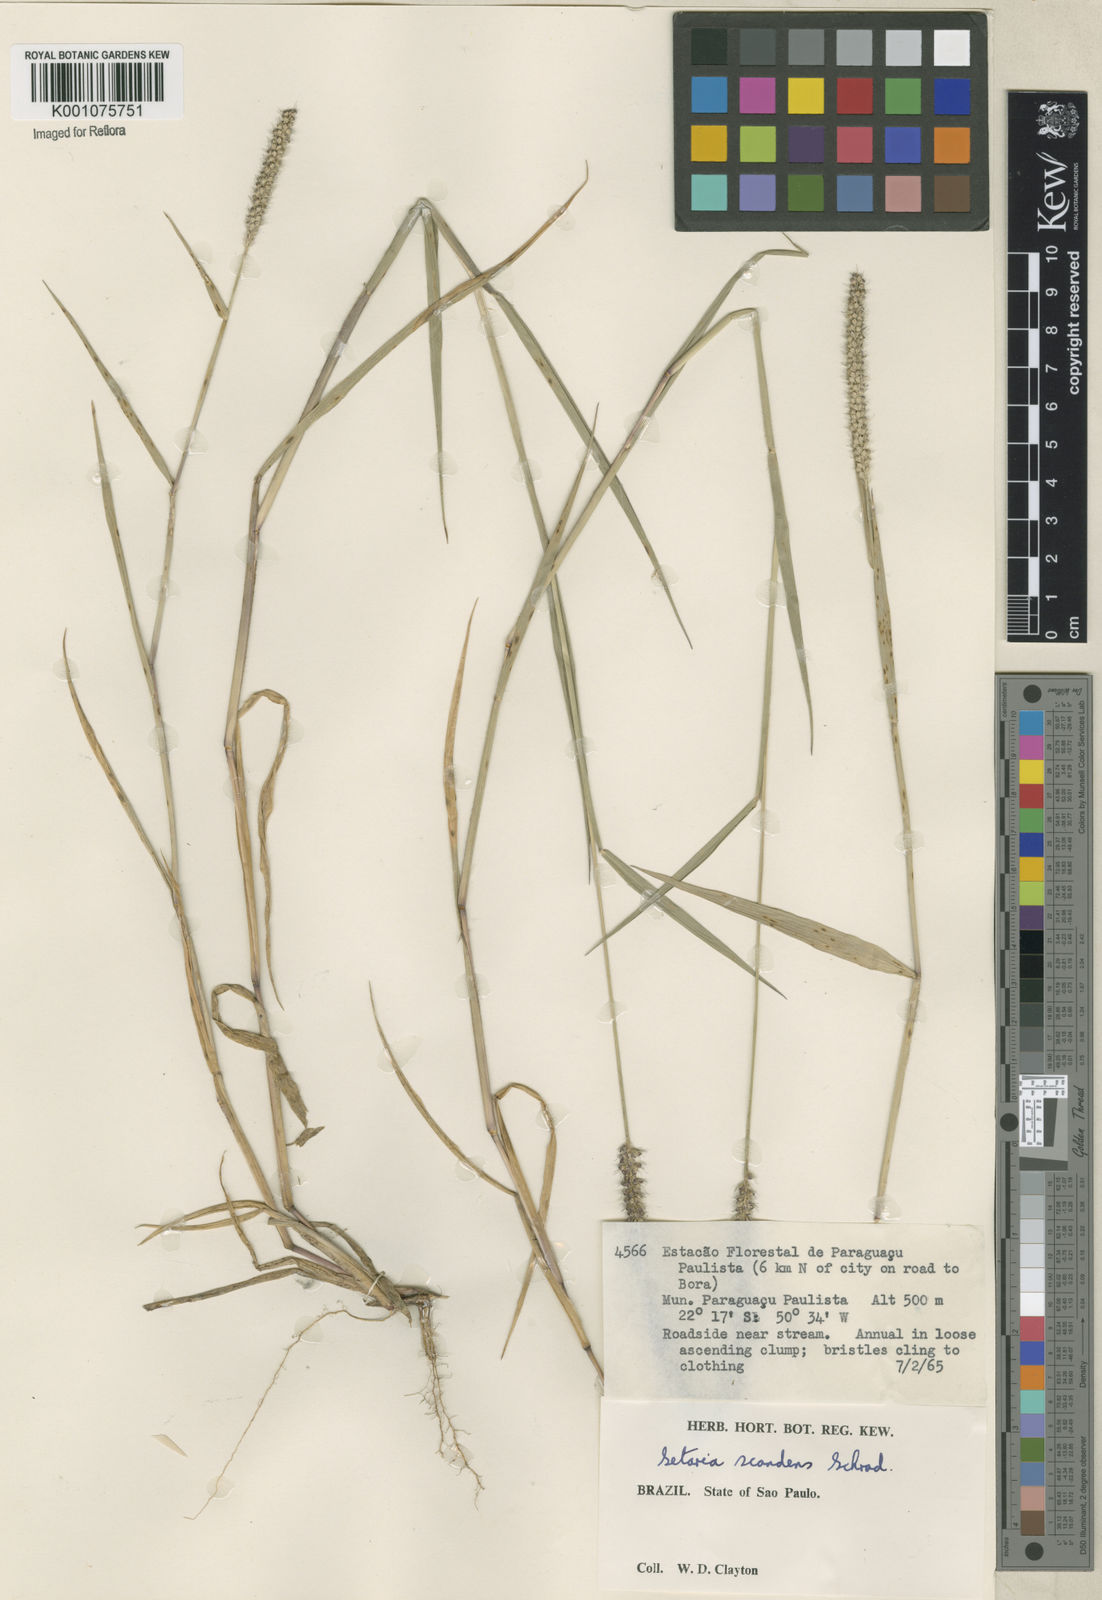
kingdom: Plantae
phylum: Tracheophyta
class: Liliopsida
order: Poales
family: Poaceae
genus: Setaria
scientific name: Setaria scandens
